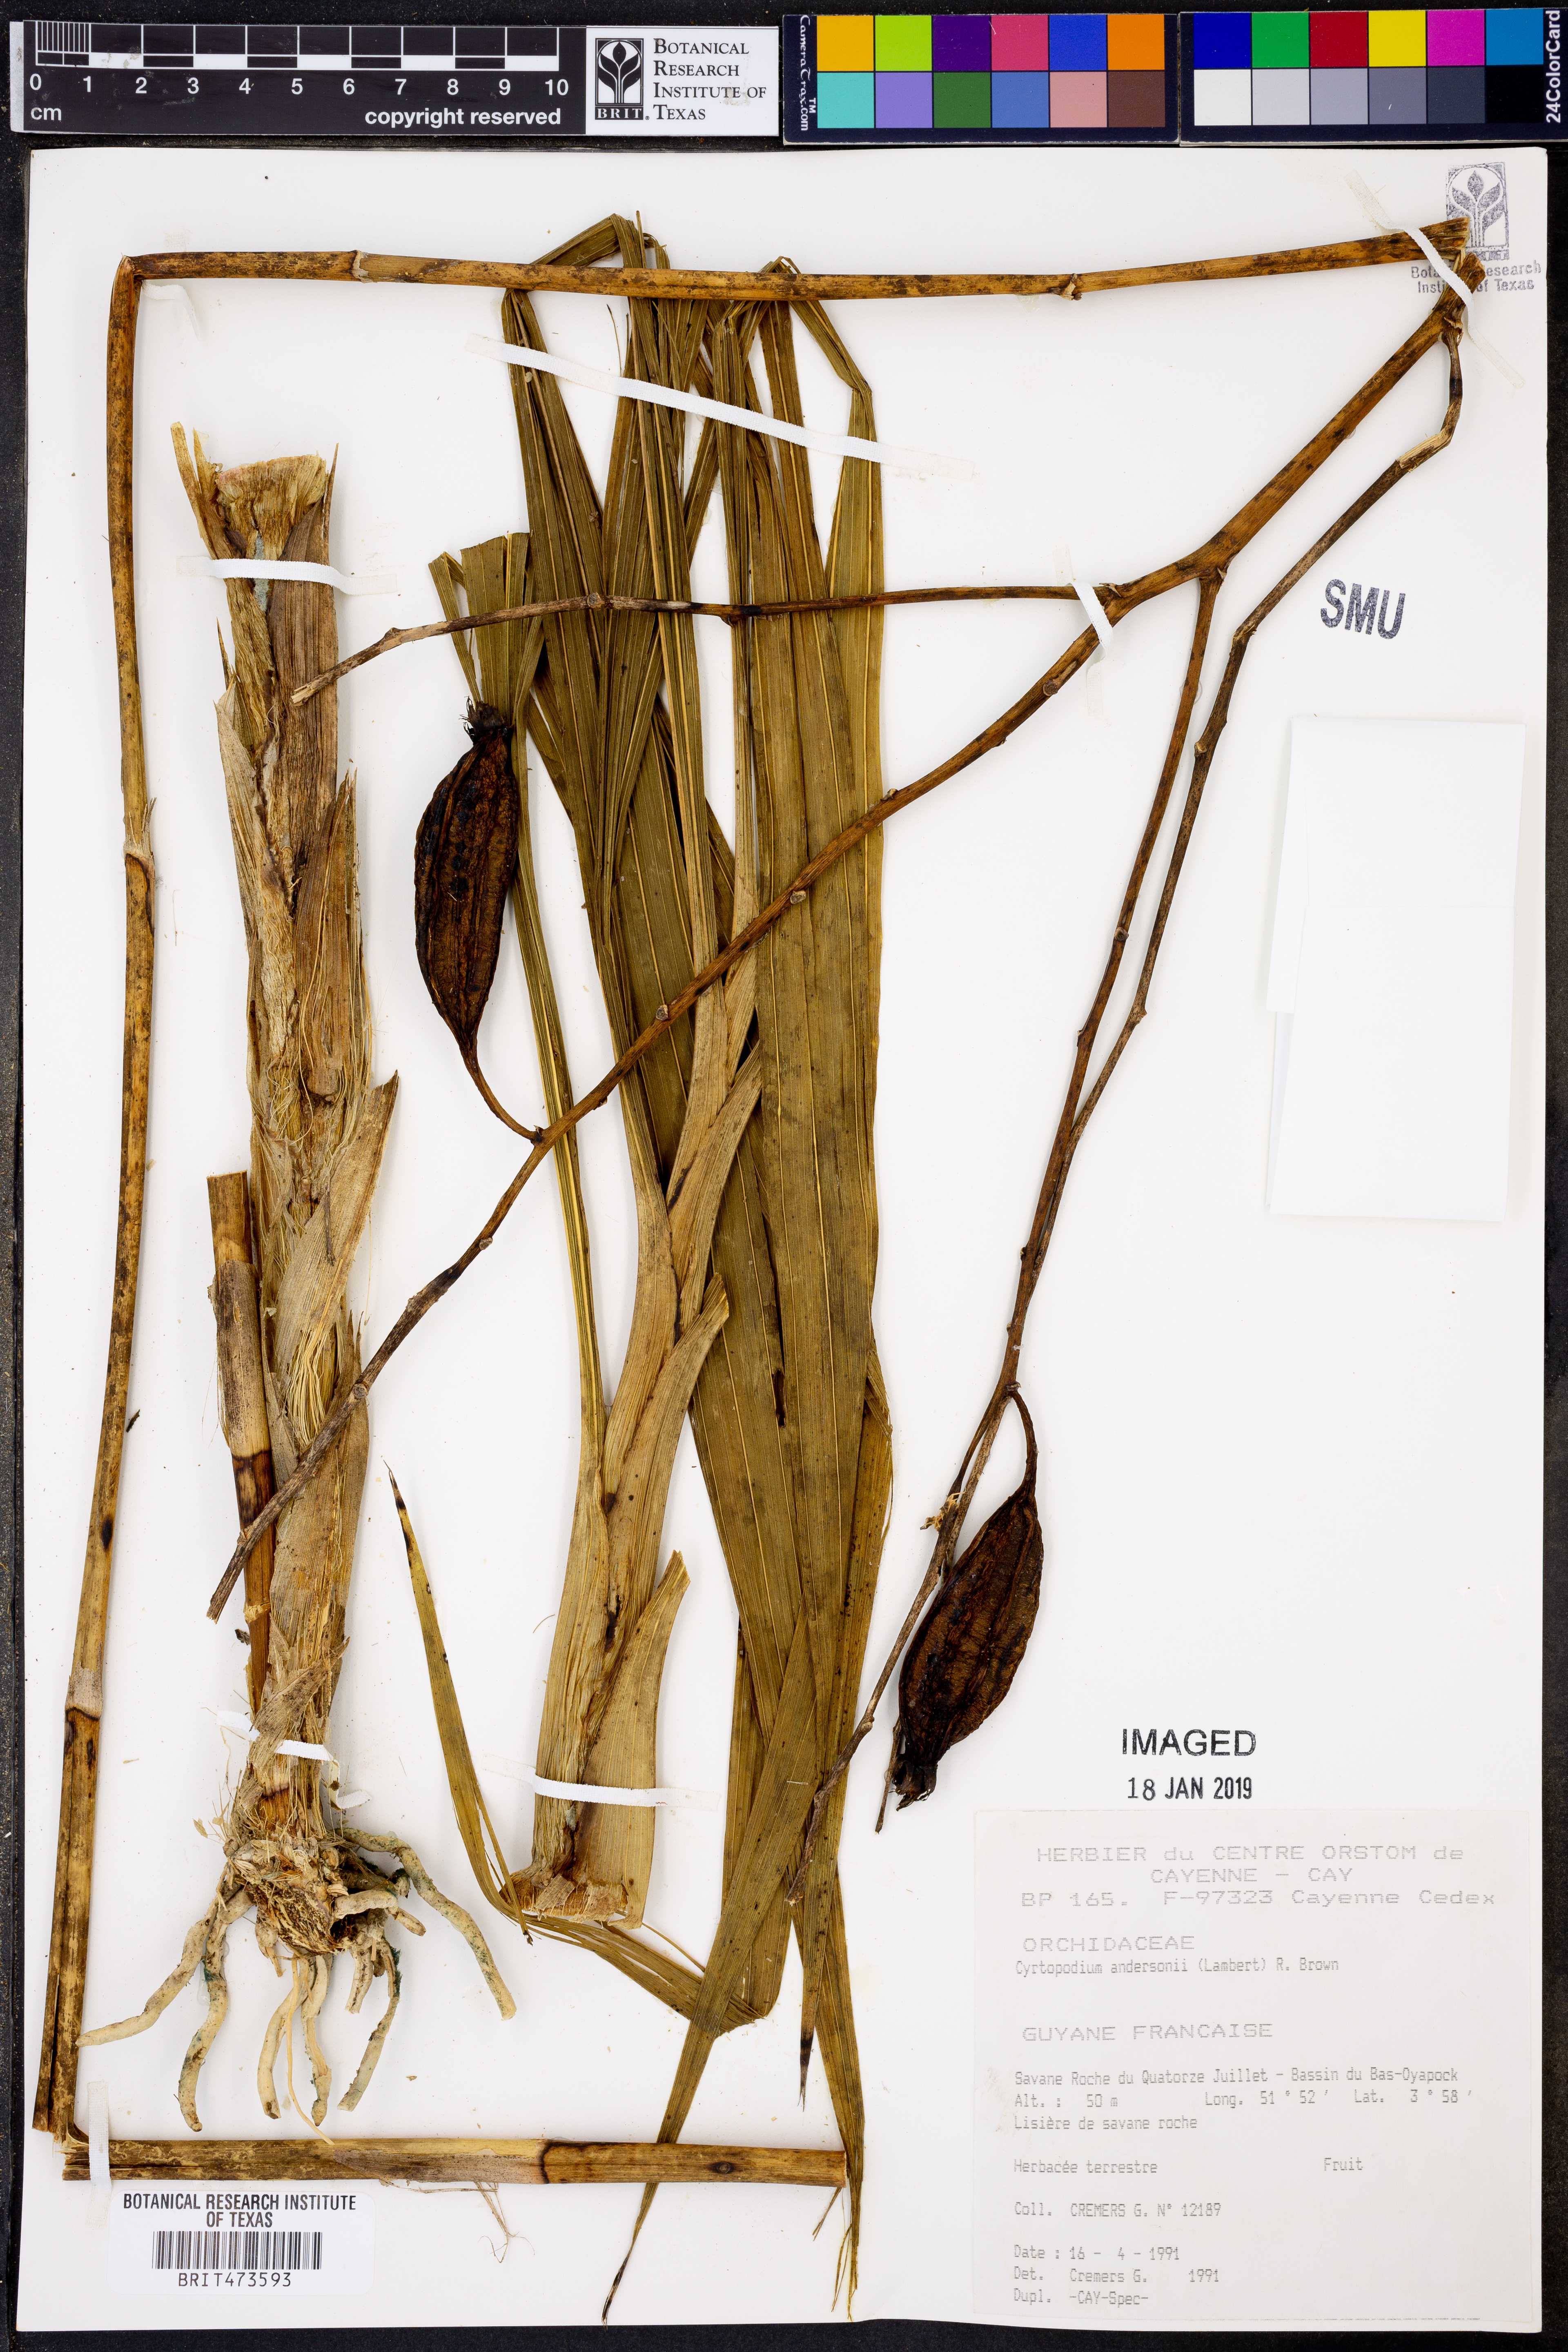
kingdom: Plantae
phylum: Tracheophyta
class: Liliopsida
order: Asparagales
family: Orchidaceae
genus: Cyrtopodium
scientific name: Cyrtopodium andersonii
